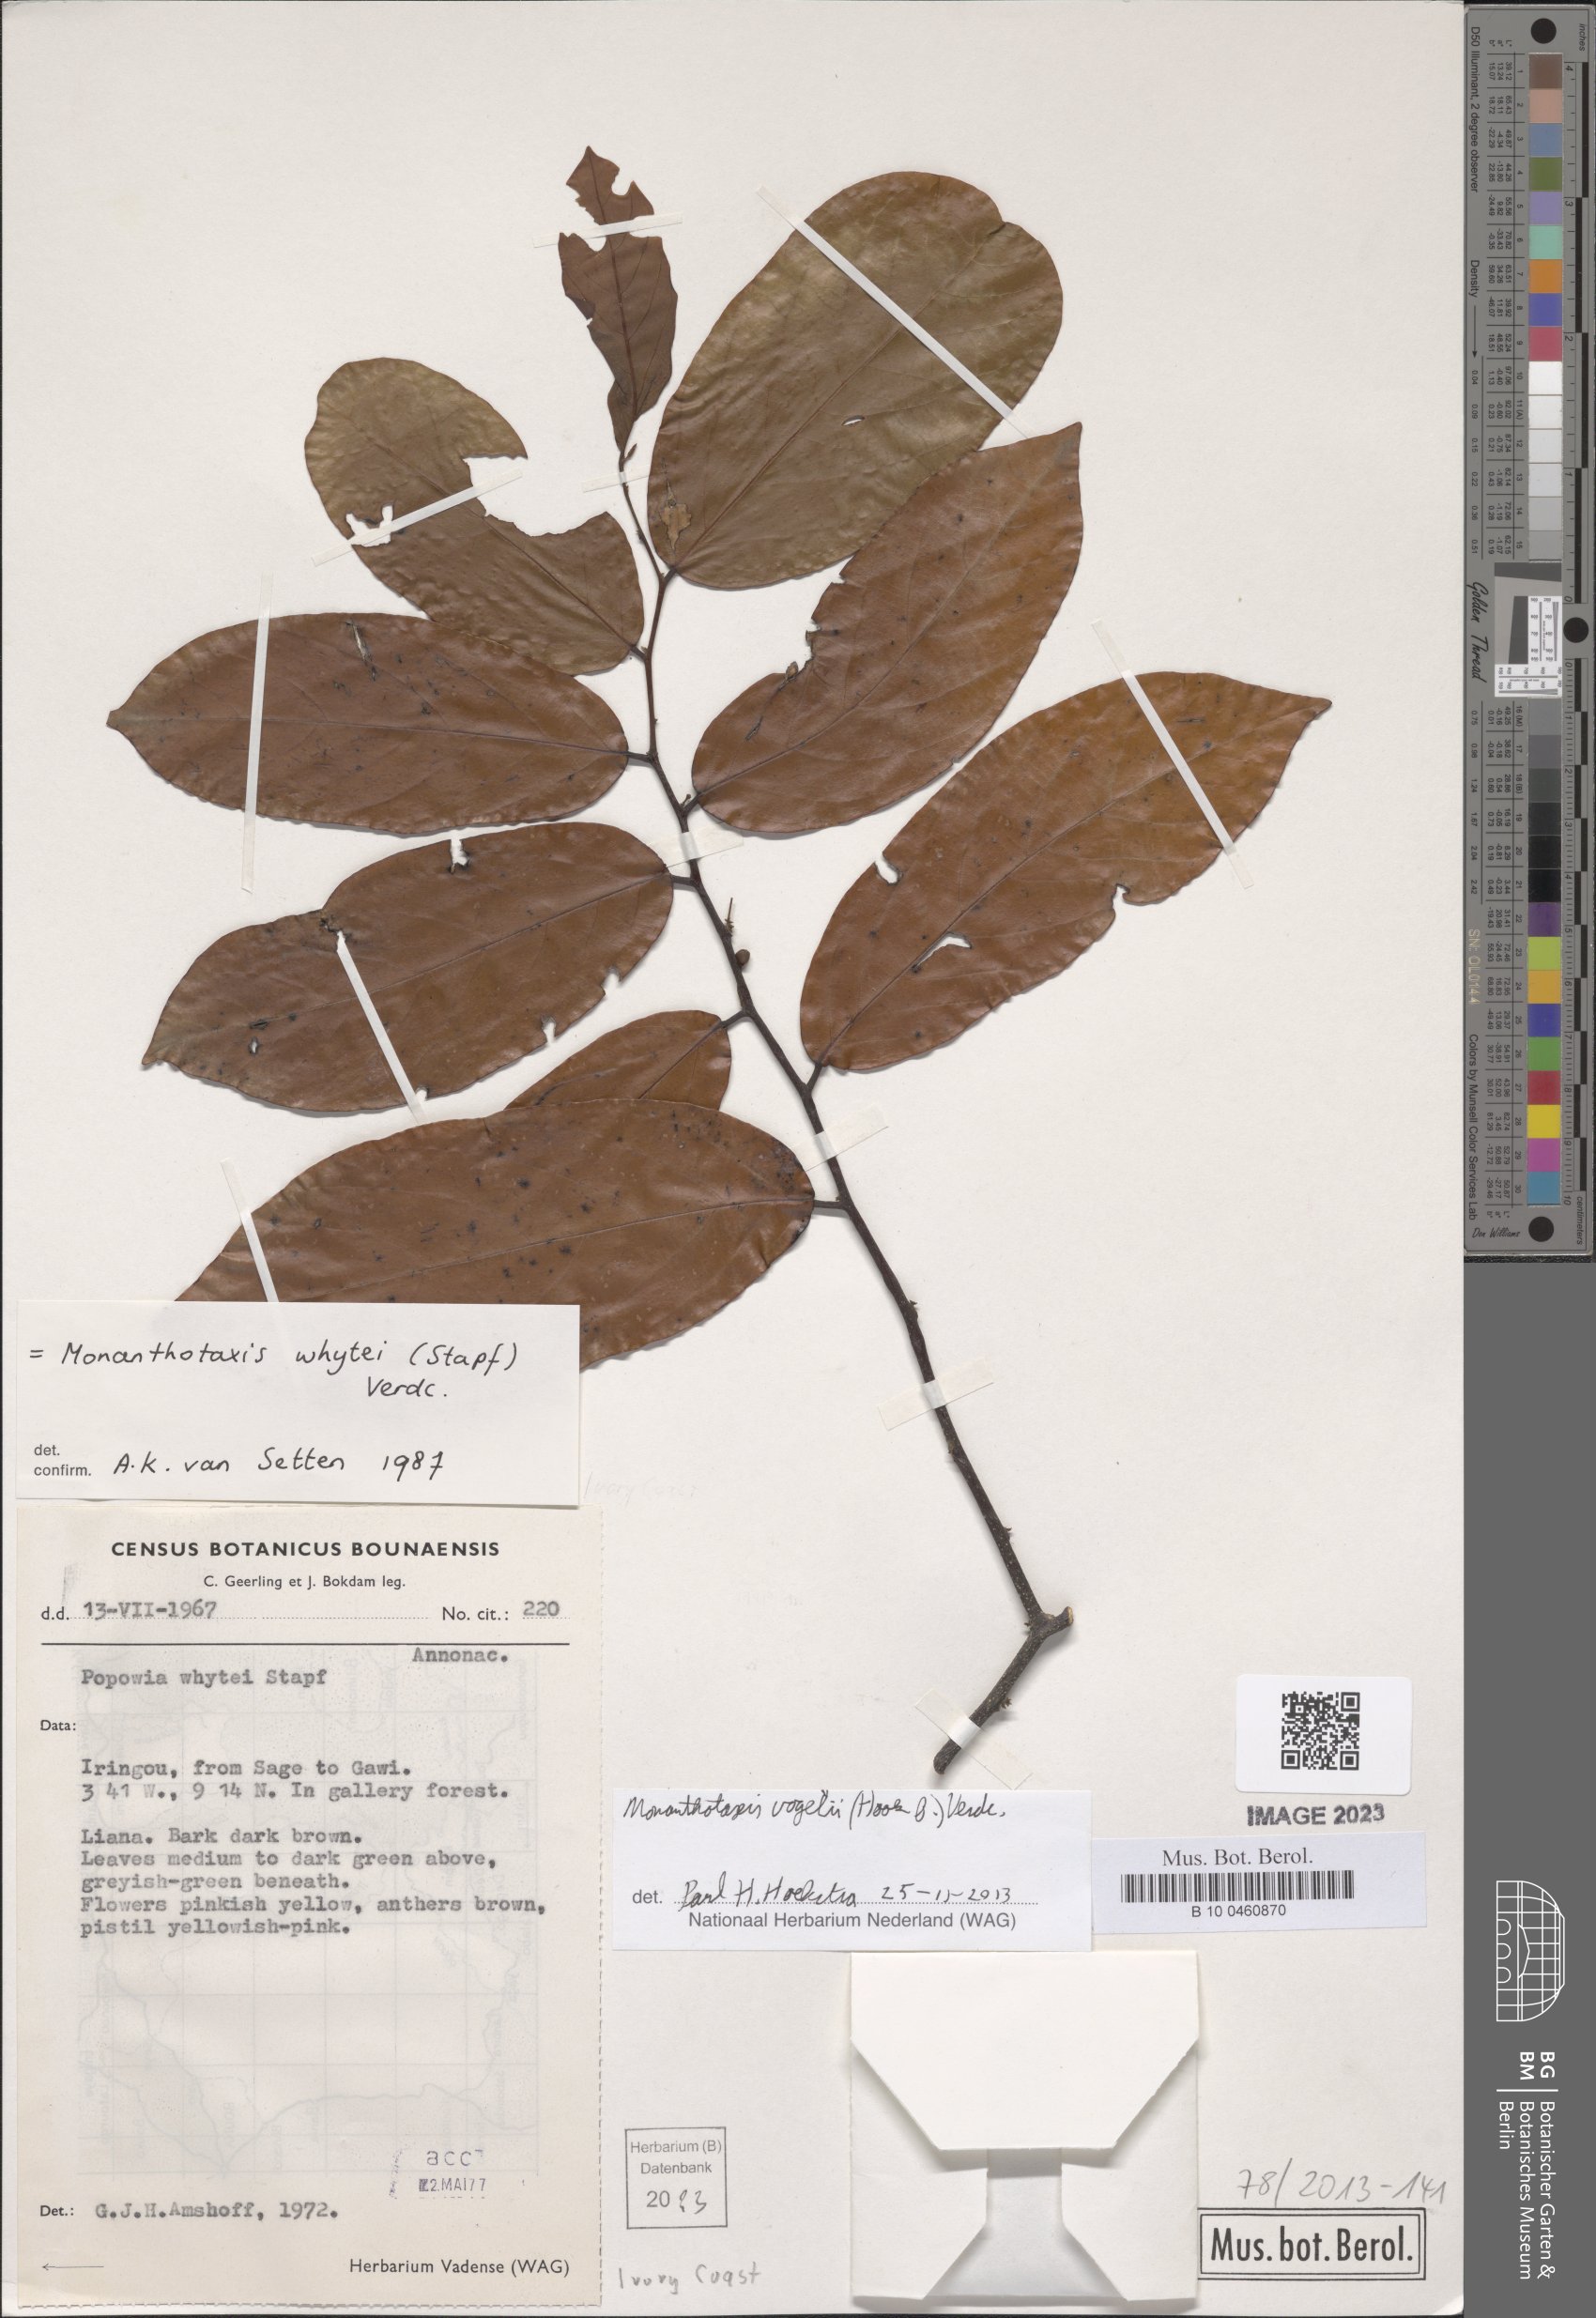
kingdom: Plantae
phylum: Tracheophyta
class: Magnoliopsida
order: Magnoliales
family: Annonaceae
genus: Monanthotaxis
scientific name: Monanthotaxis vogelii
